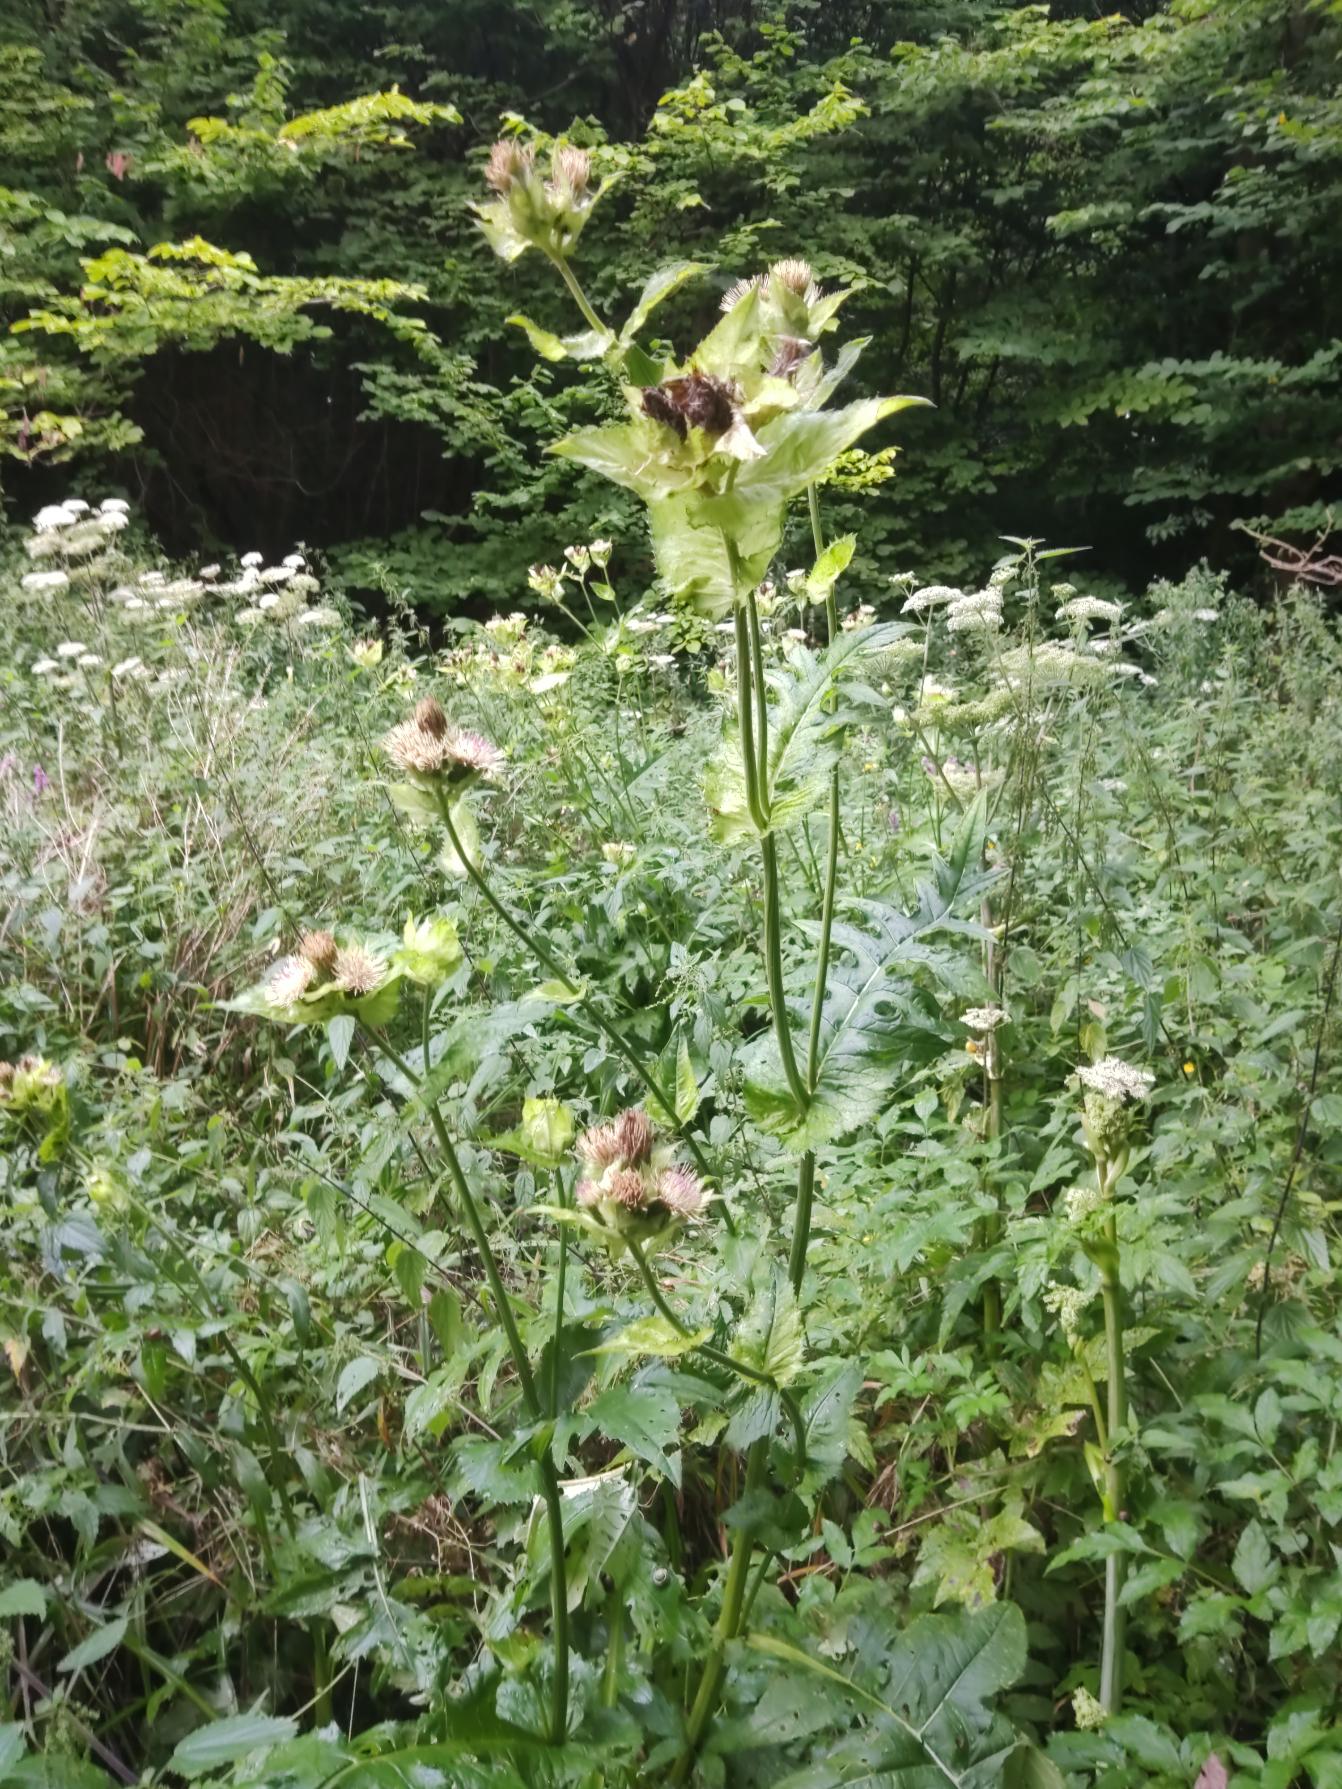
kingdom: Plantae
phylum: Tracheophyta
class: Magnoliopsida
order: Asterales
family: Asteraceae
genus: Cirsium
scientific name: Cirsium oleraceum
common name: Kål-tidsel
